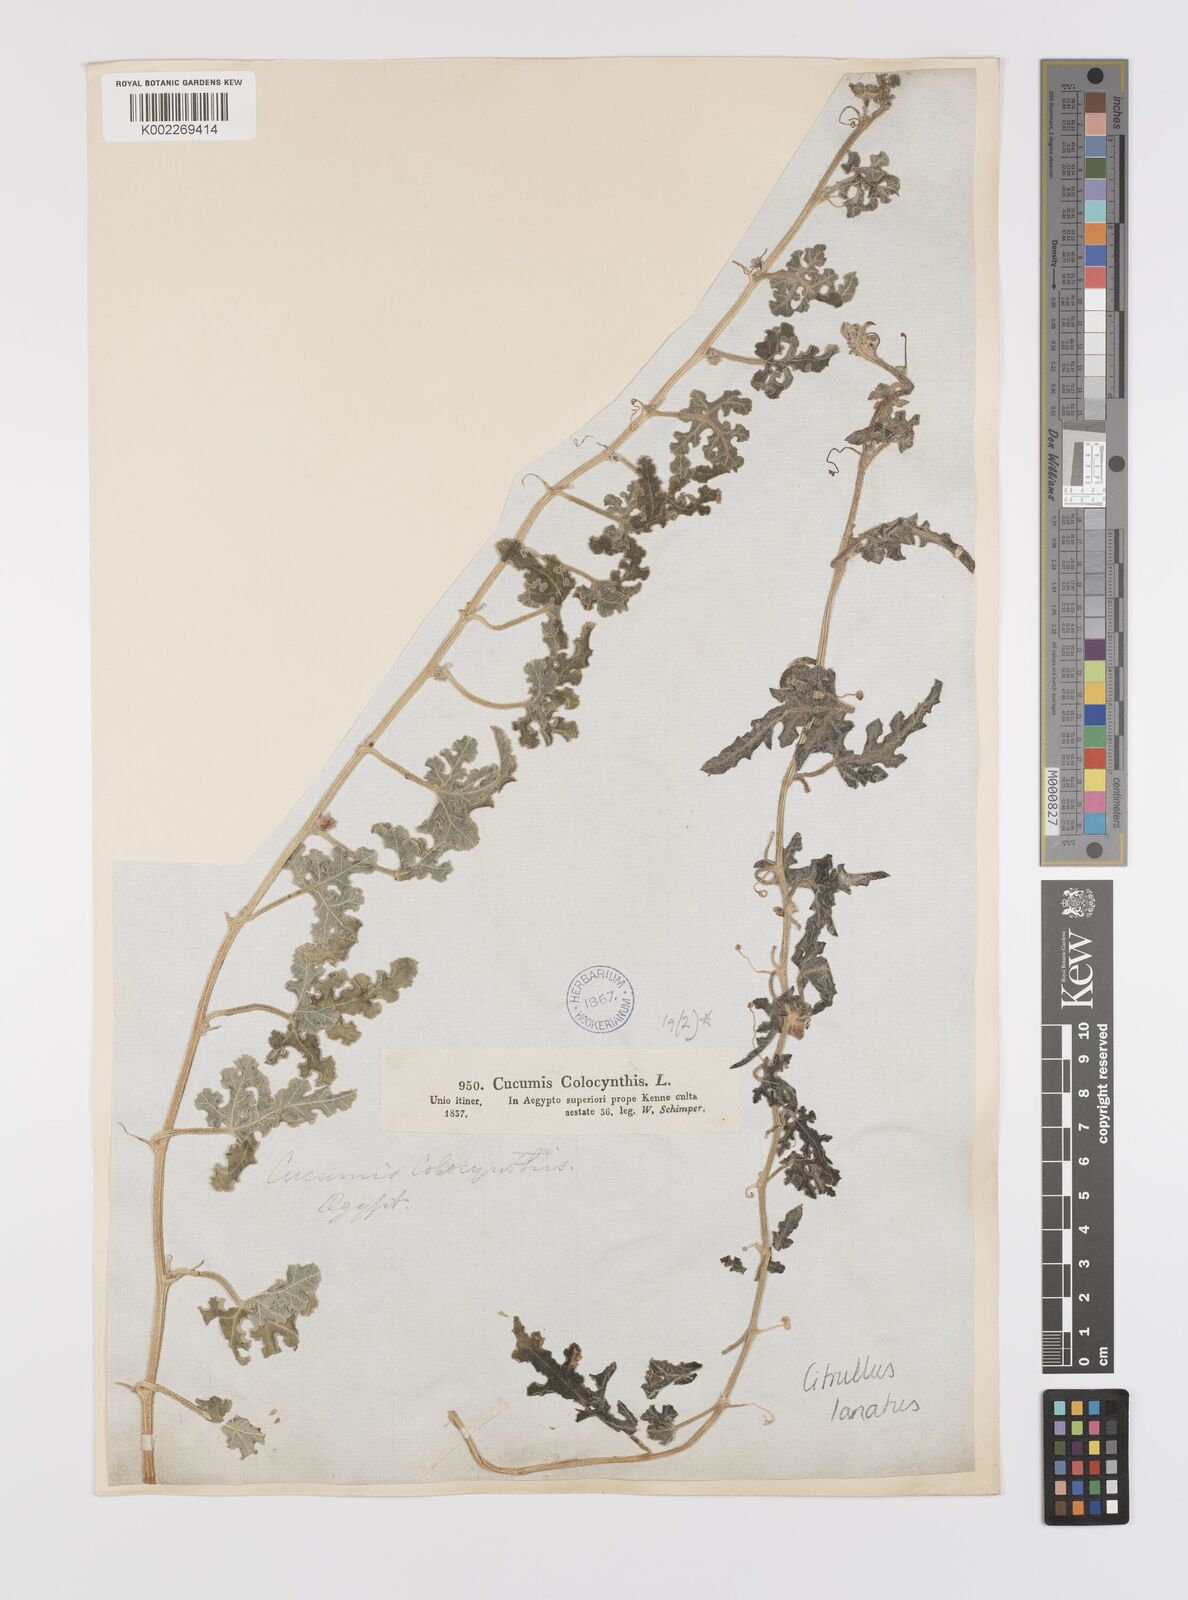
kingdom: Plantae
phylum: Tracheophyta
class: Magnoliopsida
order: Cucurbitales
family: Cucurbitaceae
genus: Citrullus
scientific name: Citrullus lanatus
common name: Watermelon
